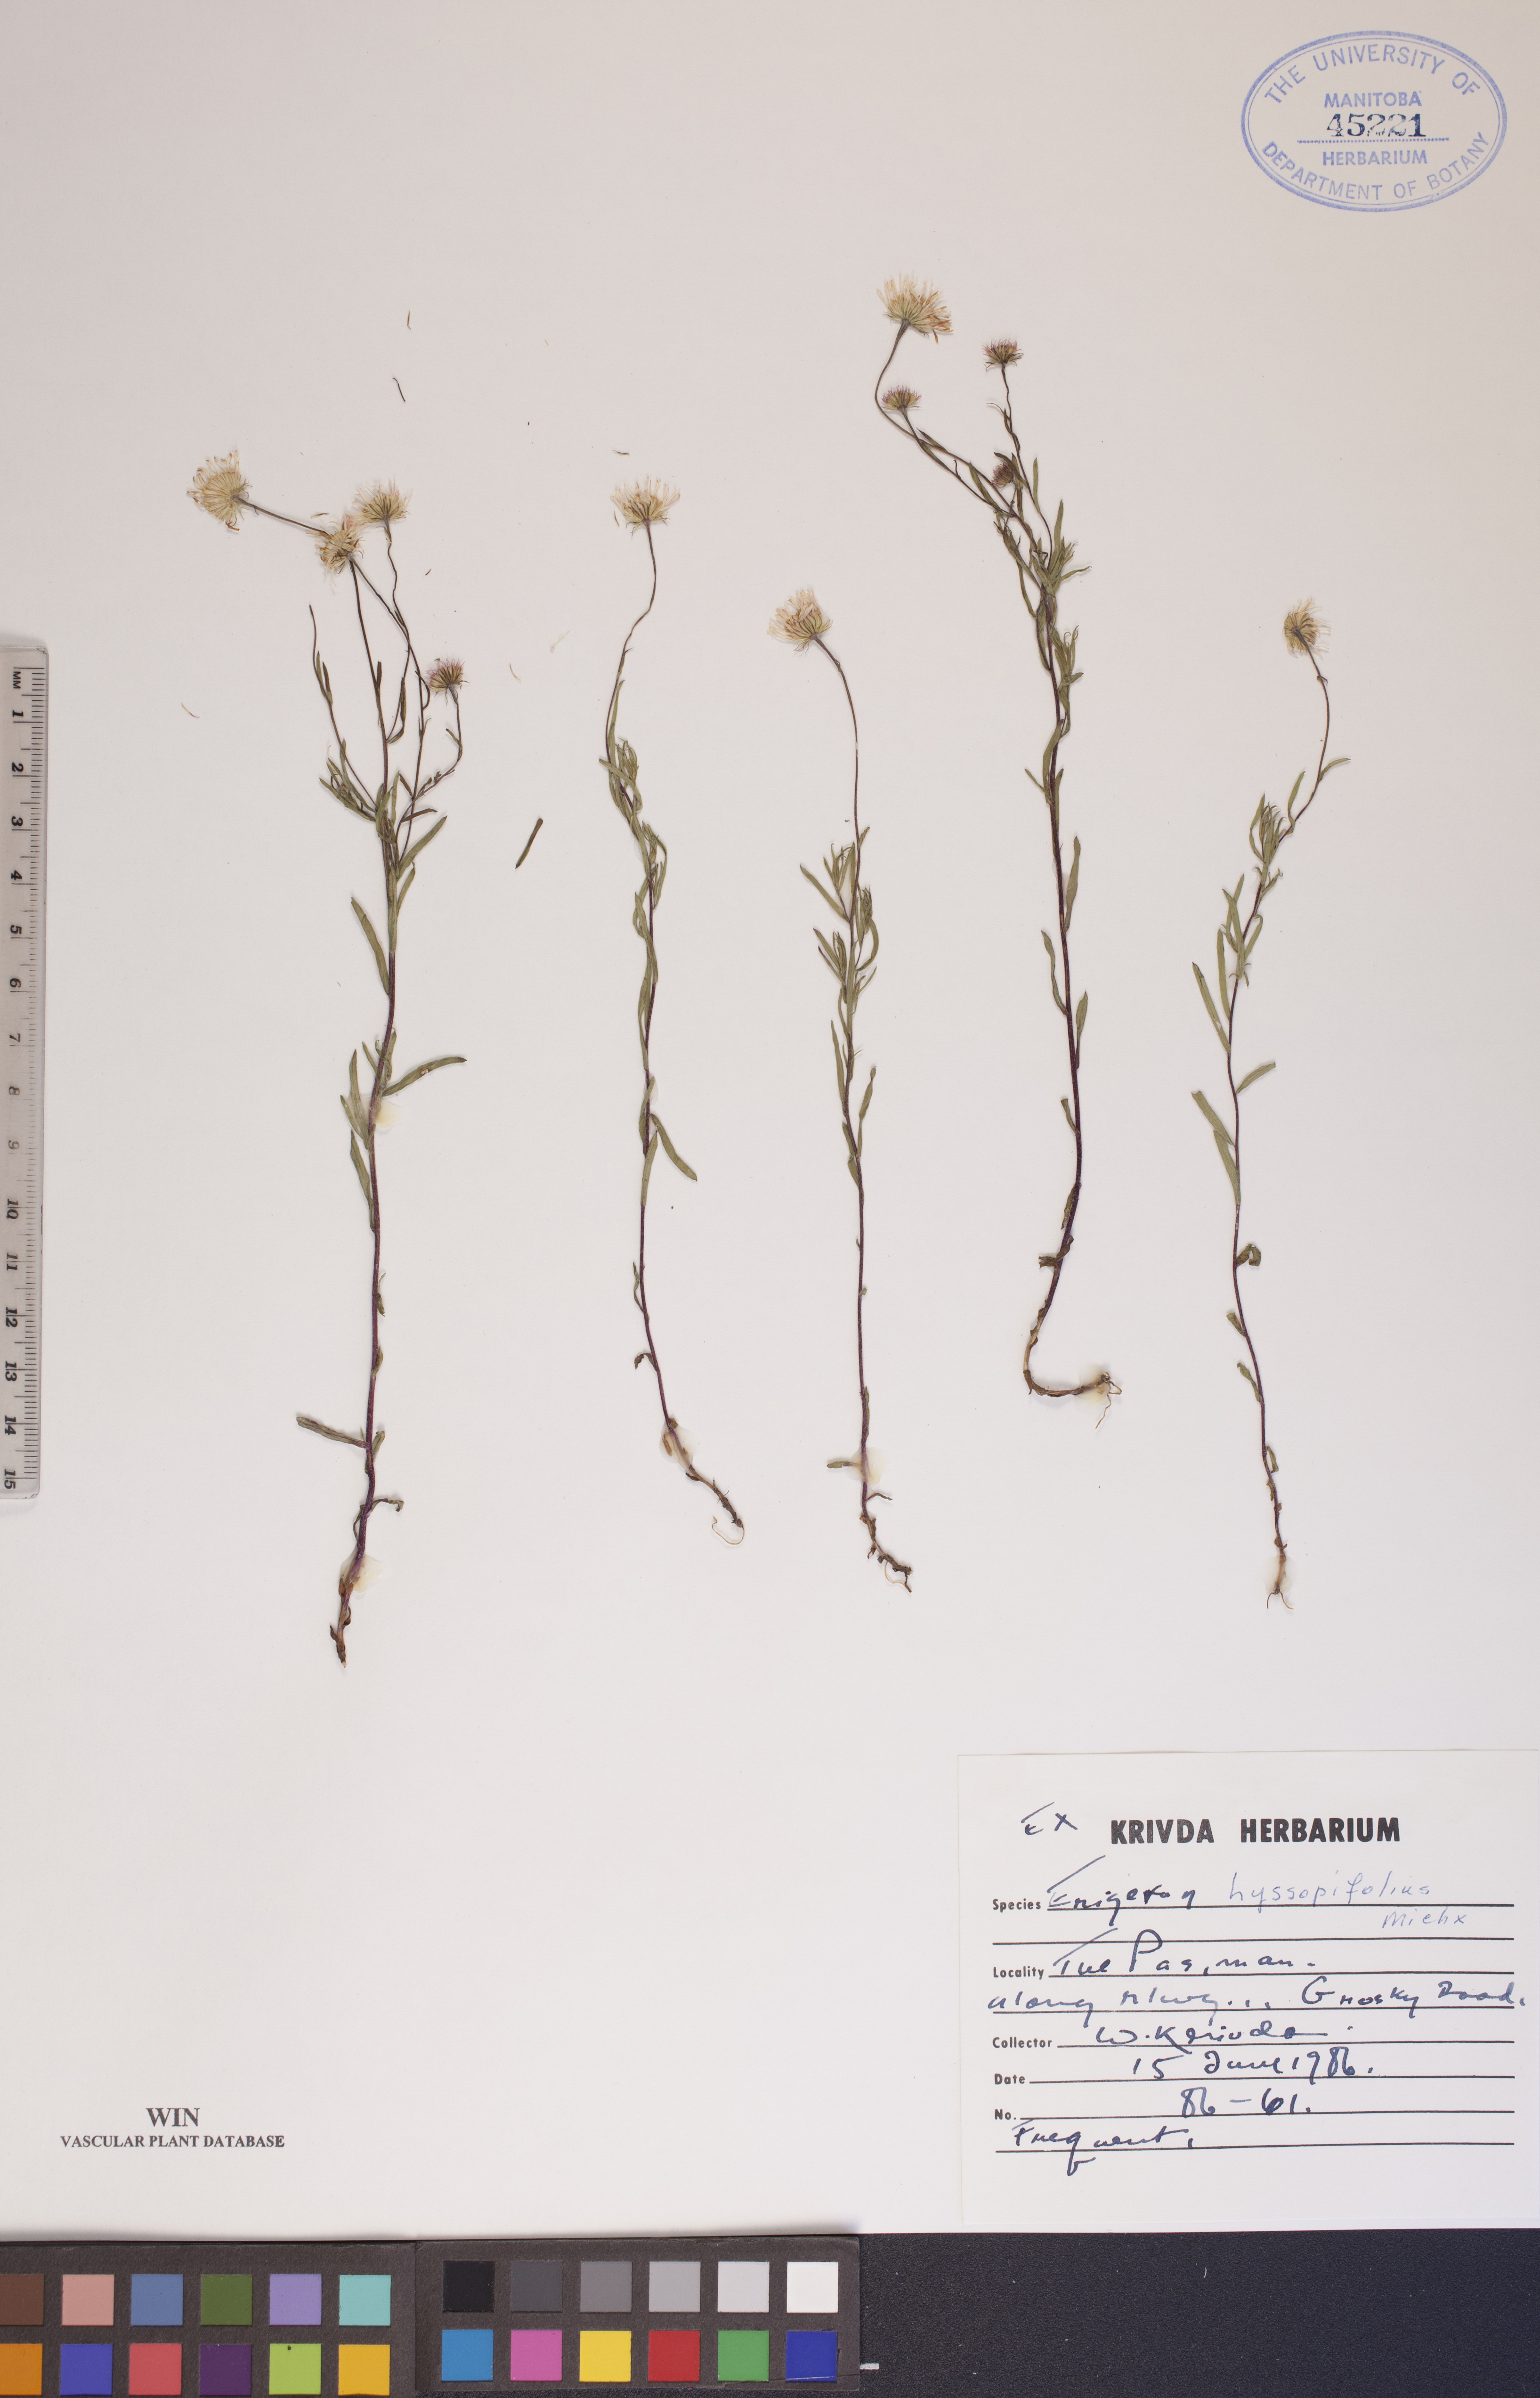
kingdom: Plantae
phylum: Tracheophyta
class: Magnoliopsida
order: Asterales
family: Asteraceae
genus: Erigeron
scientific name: Erigeron hyssopifolius
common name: Daisy fleabane
